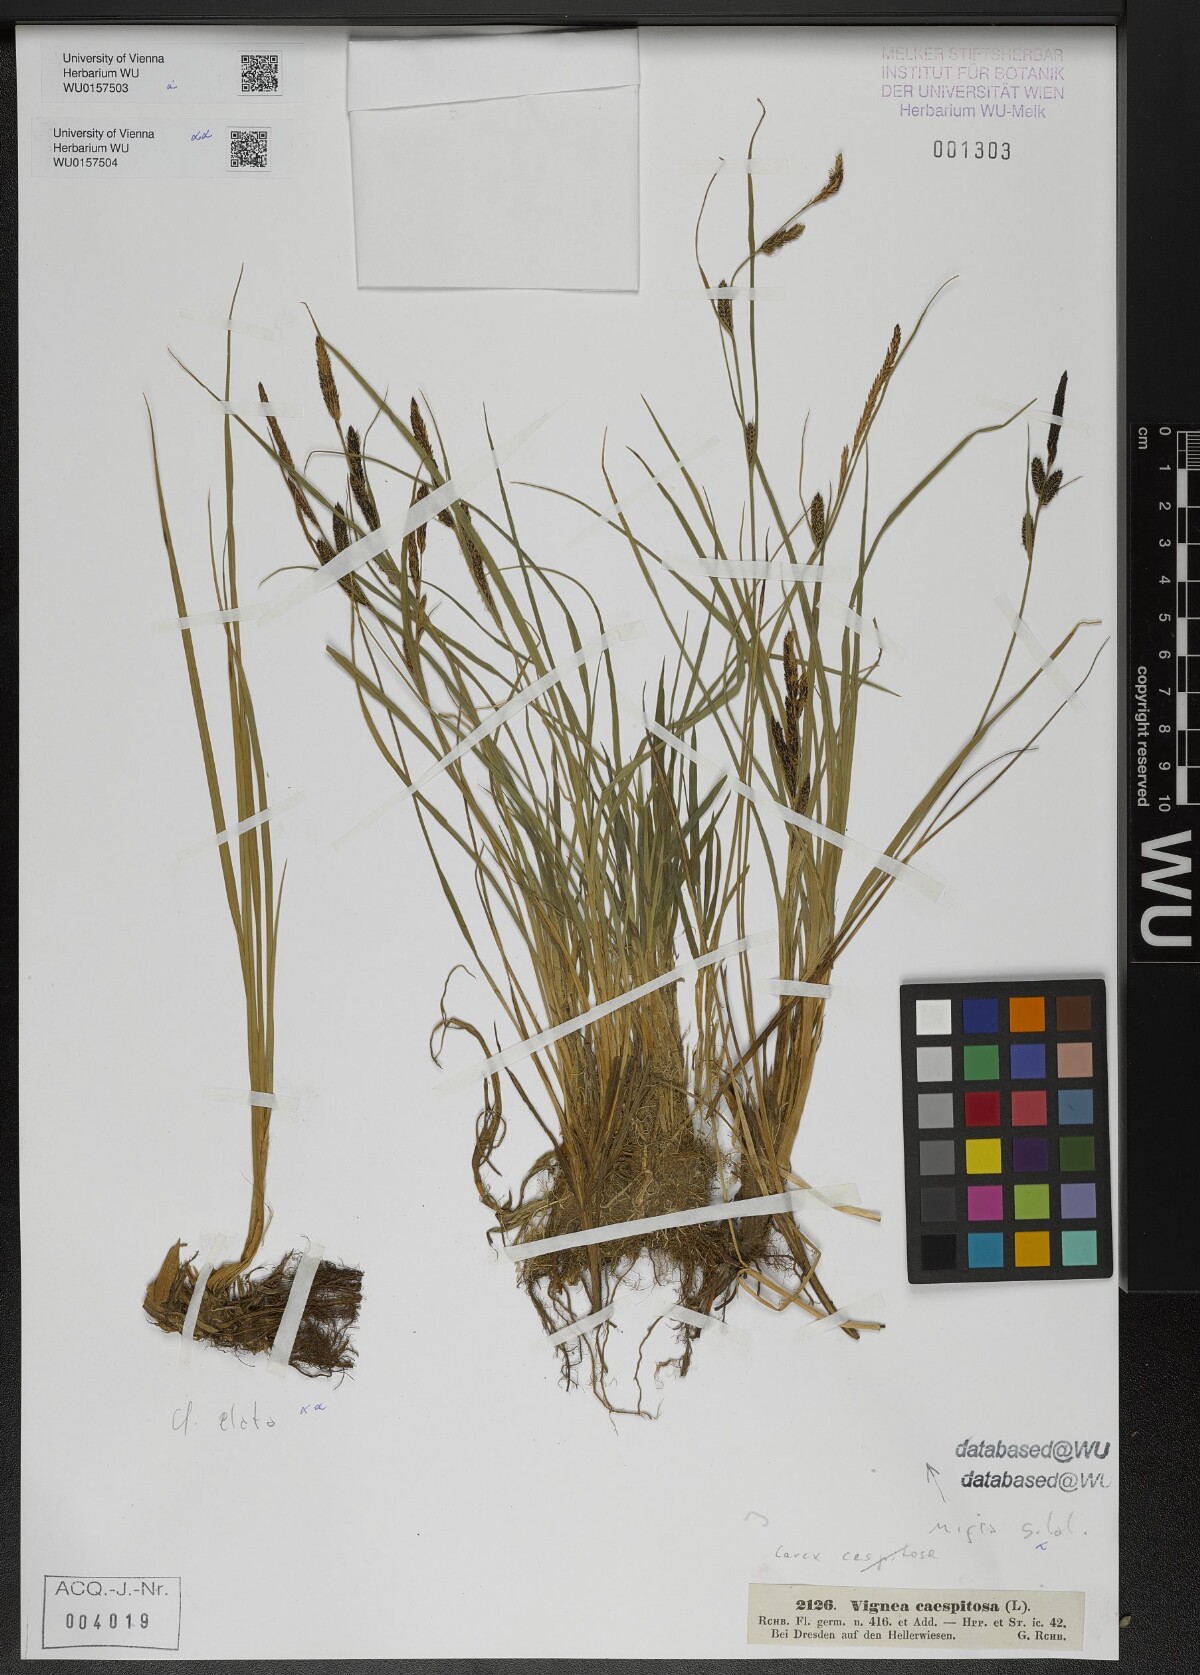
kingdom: Plantae
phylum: Tracheophyta
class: Liliopsida
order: Poales
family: Cyperaceae
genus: Carex
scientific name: Carex nigra
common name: Common sedge
